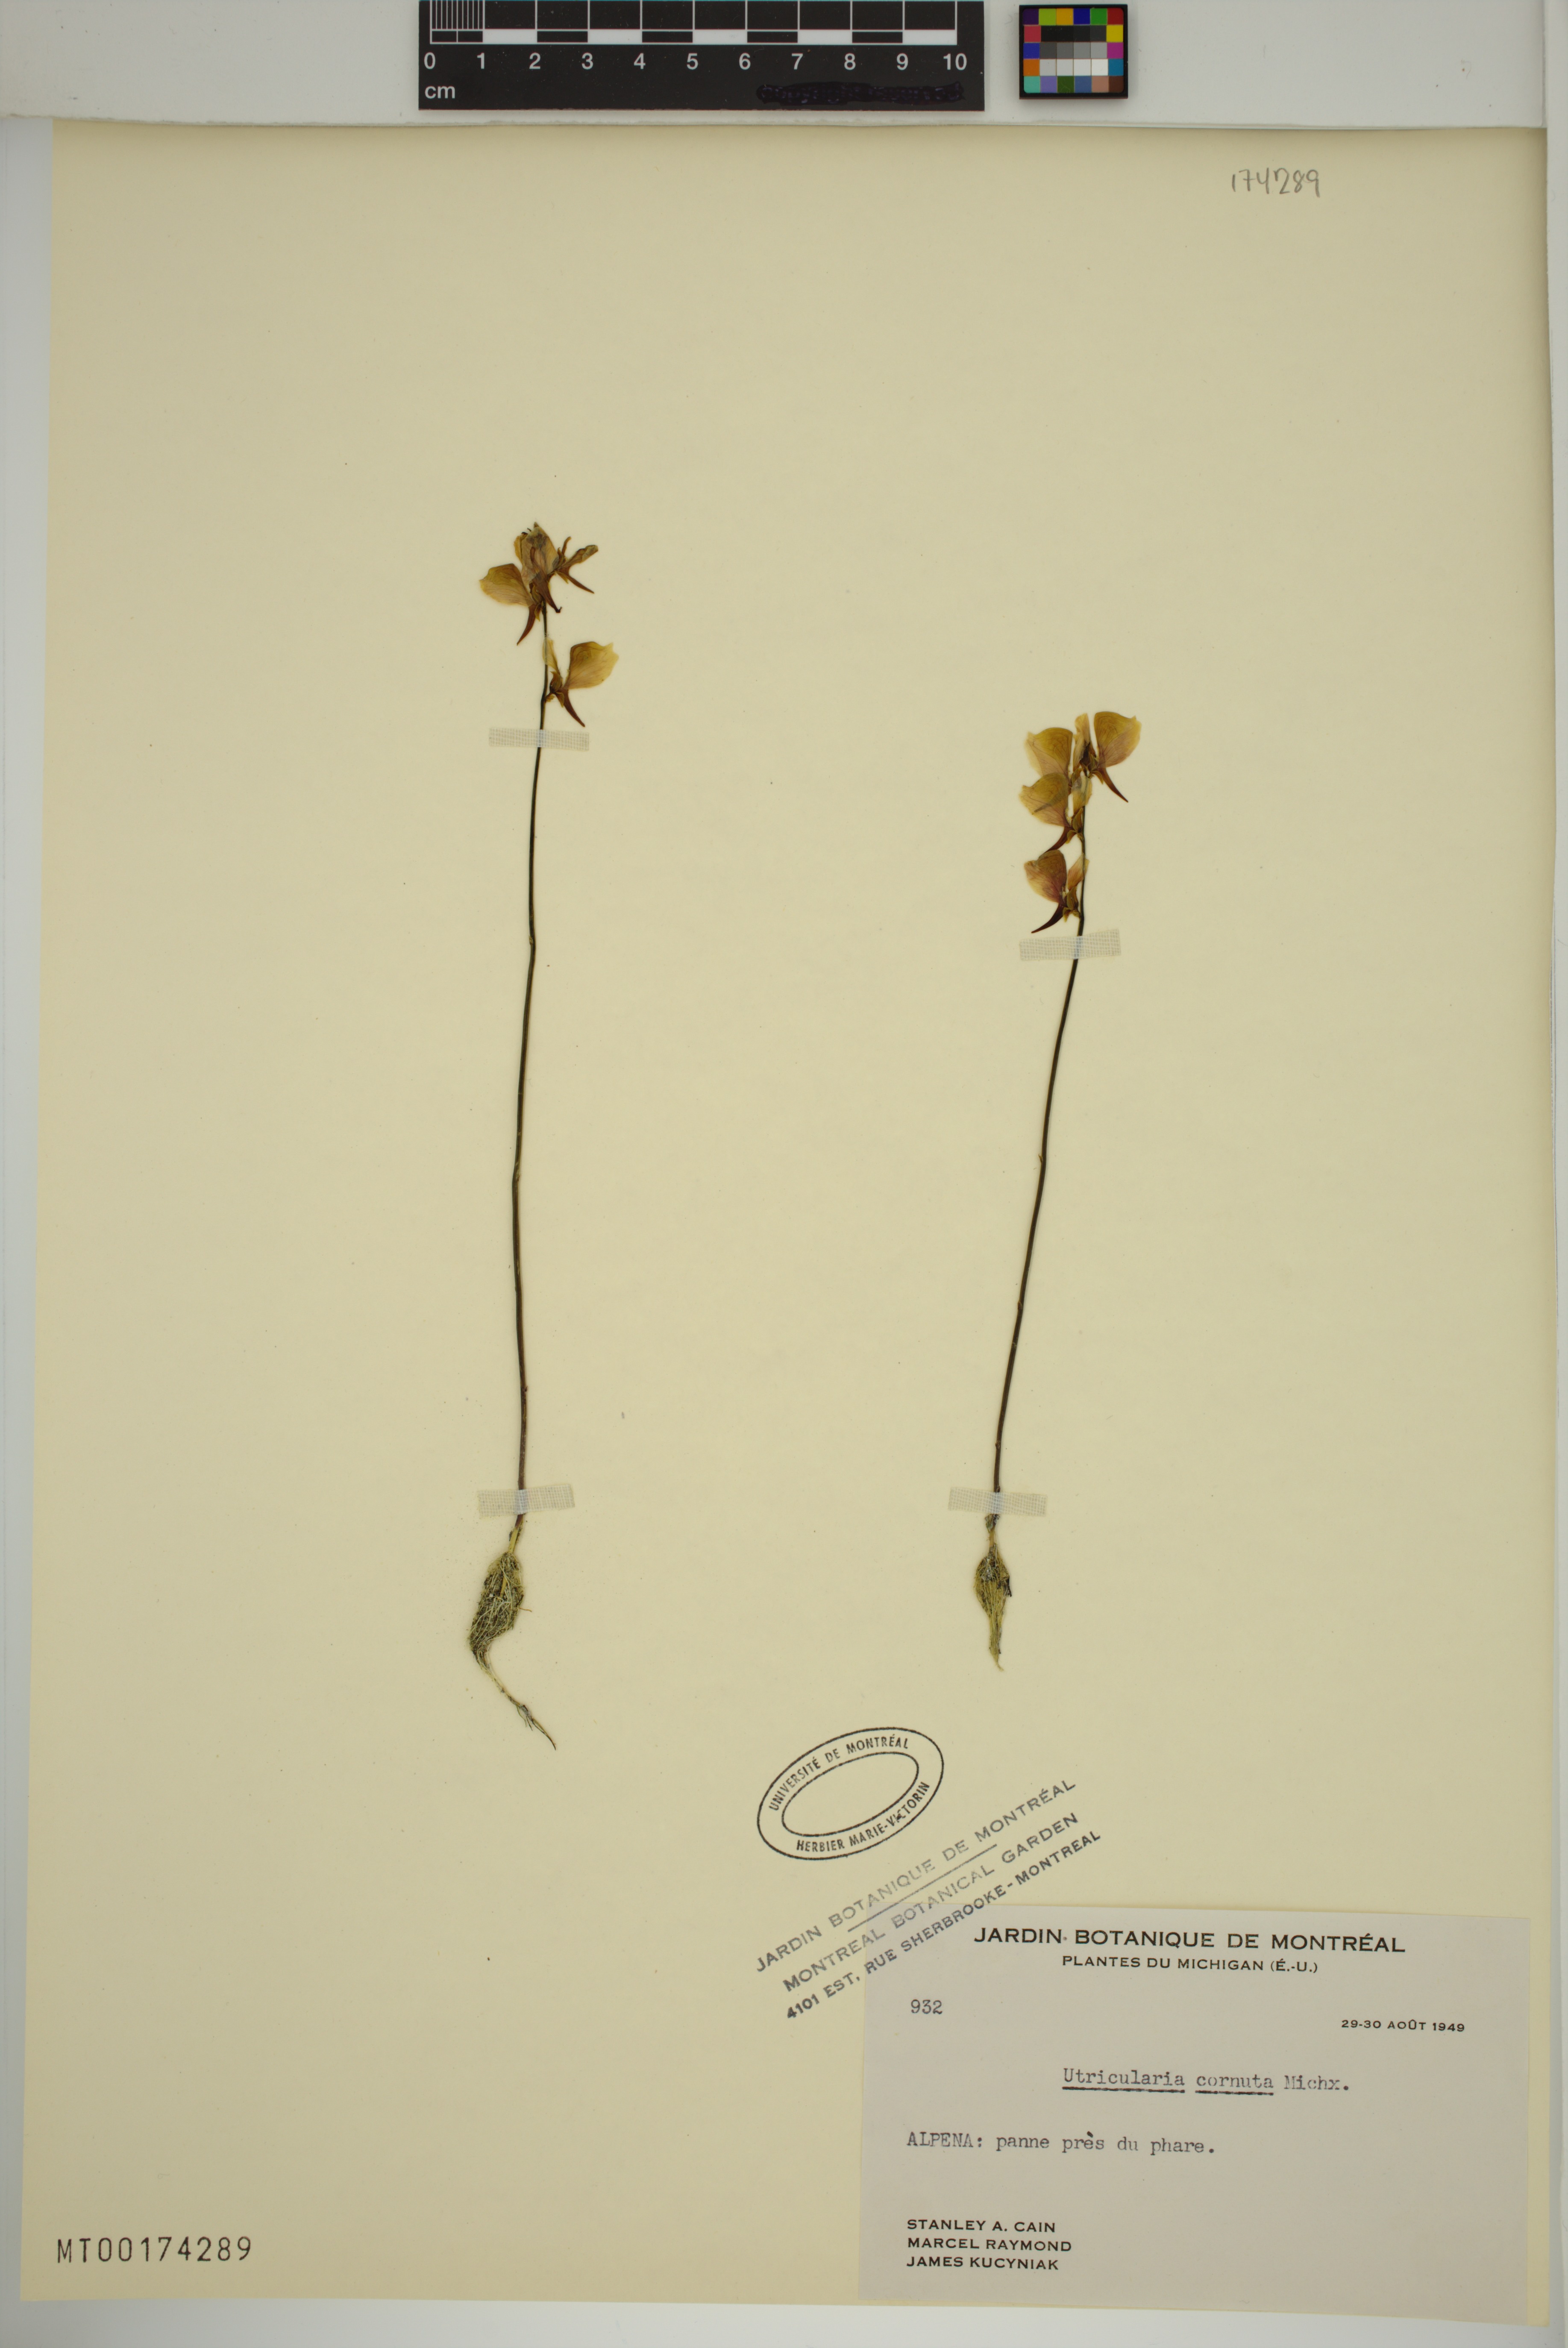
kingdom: Plantae
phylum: Tracheophyta
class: Magnoliopsida
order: Lamiales
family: Lentibulariaceae
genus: Utricularia
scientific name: Utricularia cornuta
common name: Horned bladderwort
